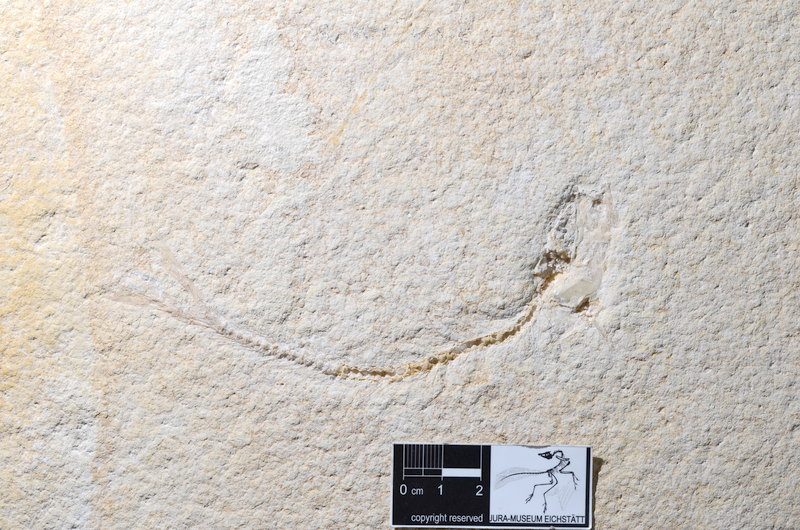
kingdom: Animalia
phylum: Chordata
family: Ascalaboidae
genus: Tharsis
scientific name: Tharsis dubius
